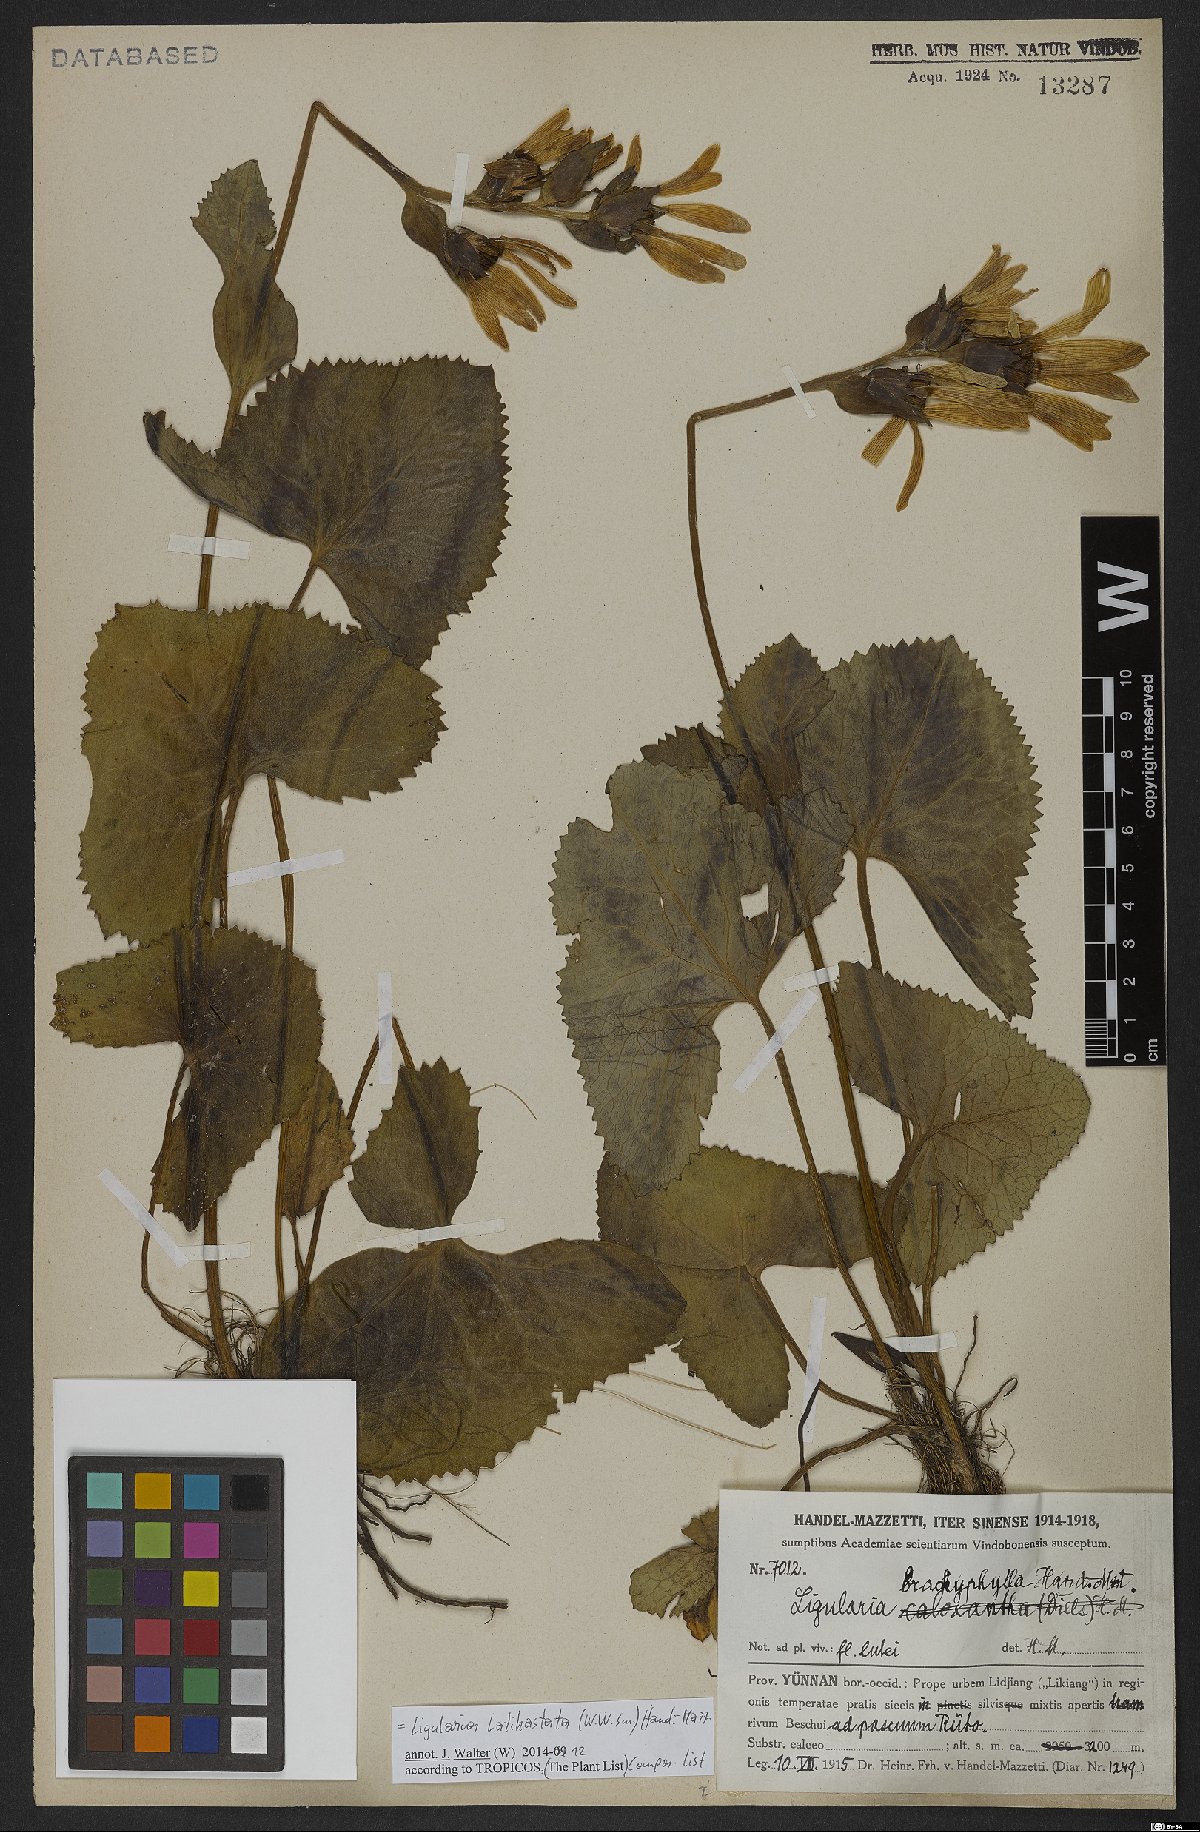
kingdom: Plantae
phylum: Tracheophyta
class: Magnoliopsida
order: Asterales
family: Asteraceae
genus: Ligularia
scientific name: Ligularia latihastata
